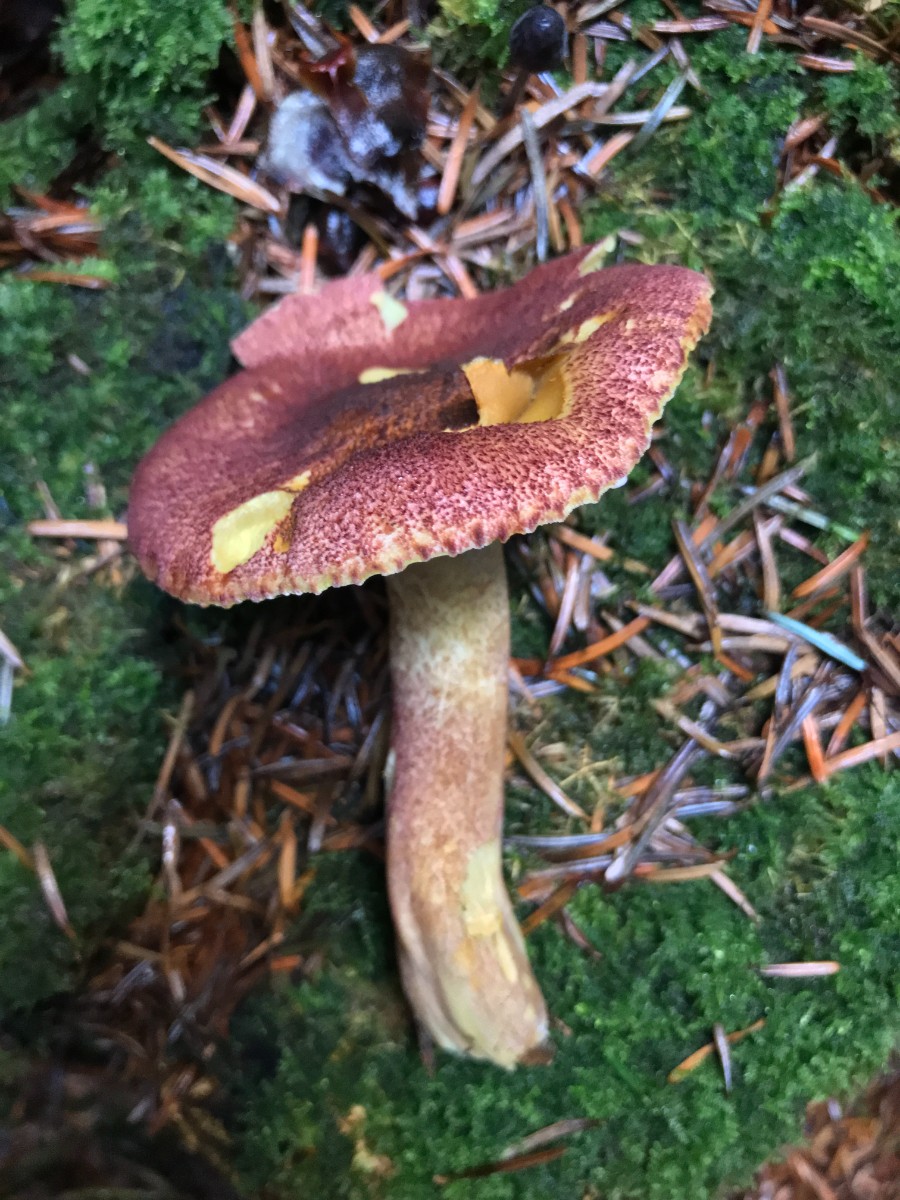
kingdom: Fungi
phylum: Basidiomycota
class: Agaricomycetes
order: Agaricales
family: Tricholomataceae
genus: Tricholomopsis
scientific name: Tricholomopsis rutilans
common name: purpur-væbnerhat
